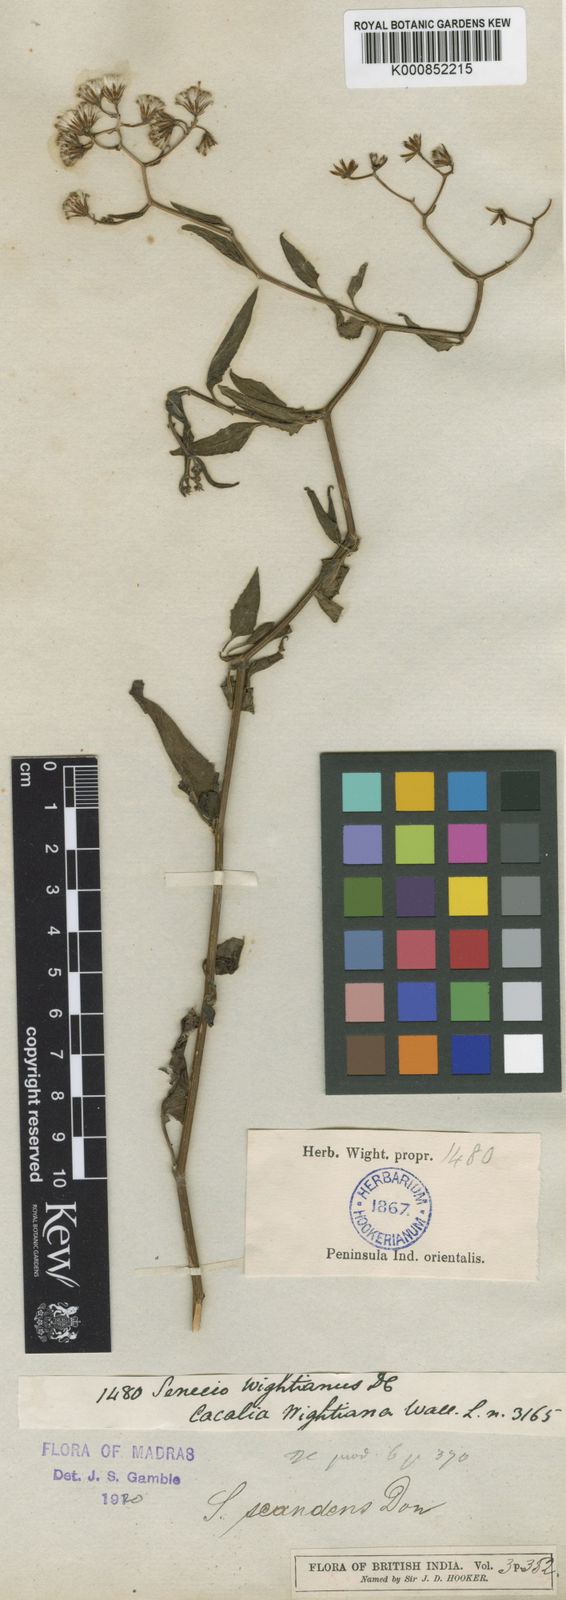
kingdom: Plantae
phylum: Tracheophyta
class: Magnoliopsida
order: Asterales
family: Asteraceae
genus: Senecio
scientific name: Senecio scandens
